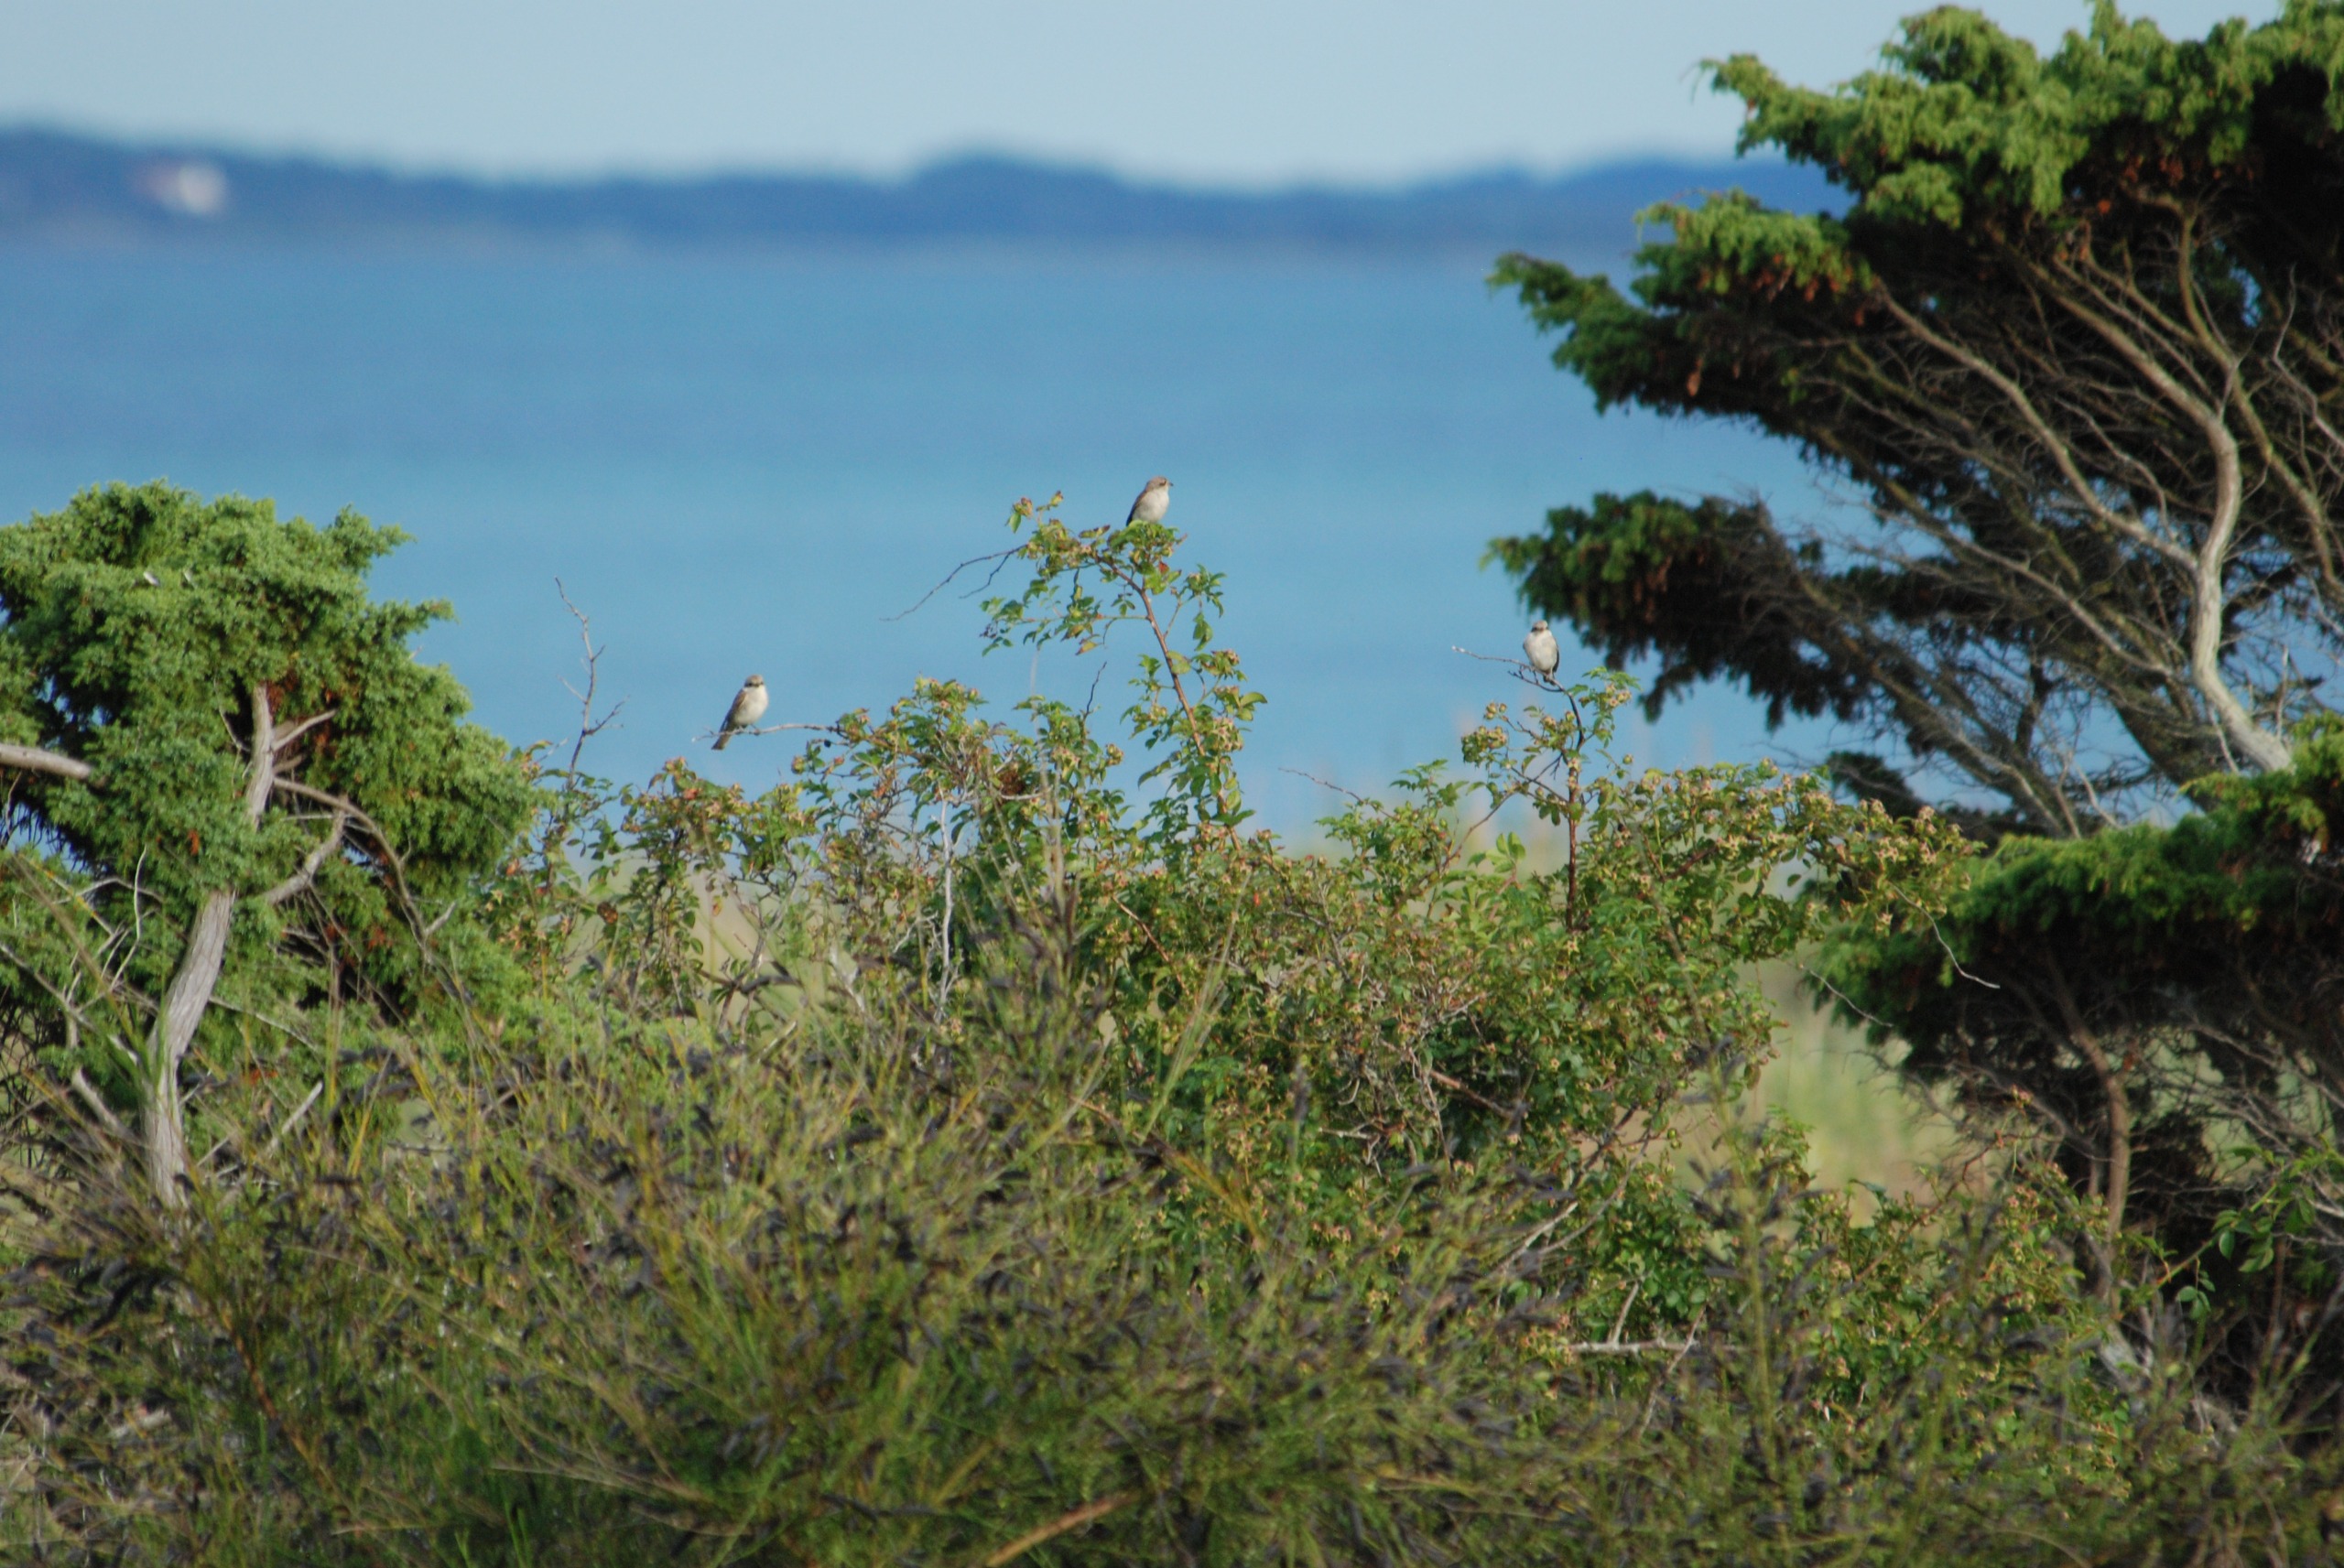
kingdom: Animalia
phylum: Chordata
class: Aves
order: Passeriformes
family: Laniidae
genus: Lanius
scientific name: Lanius collurio
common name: Rødrygget tornskade
